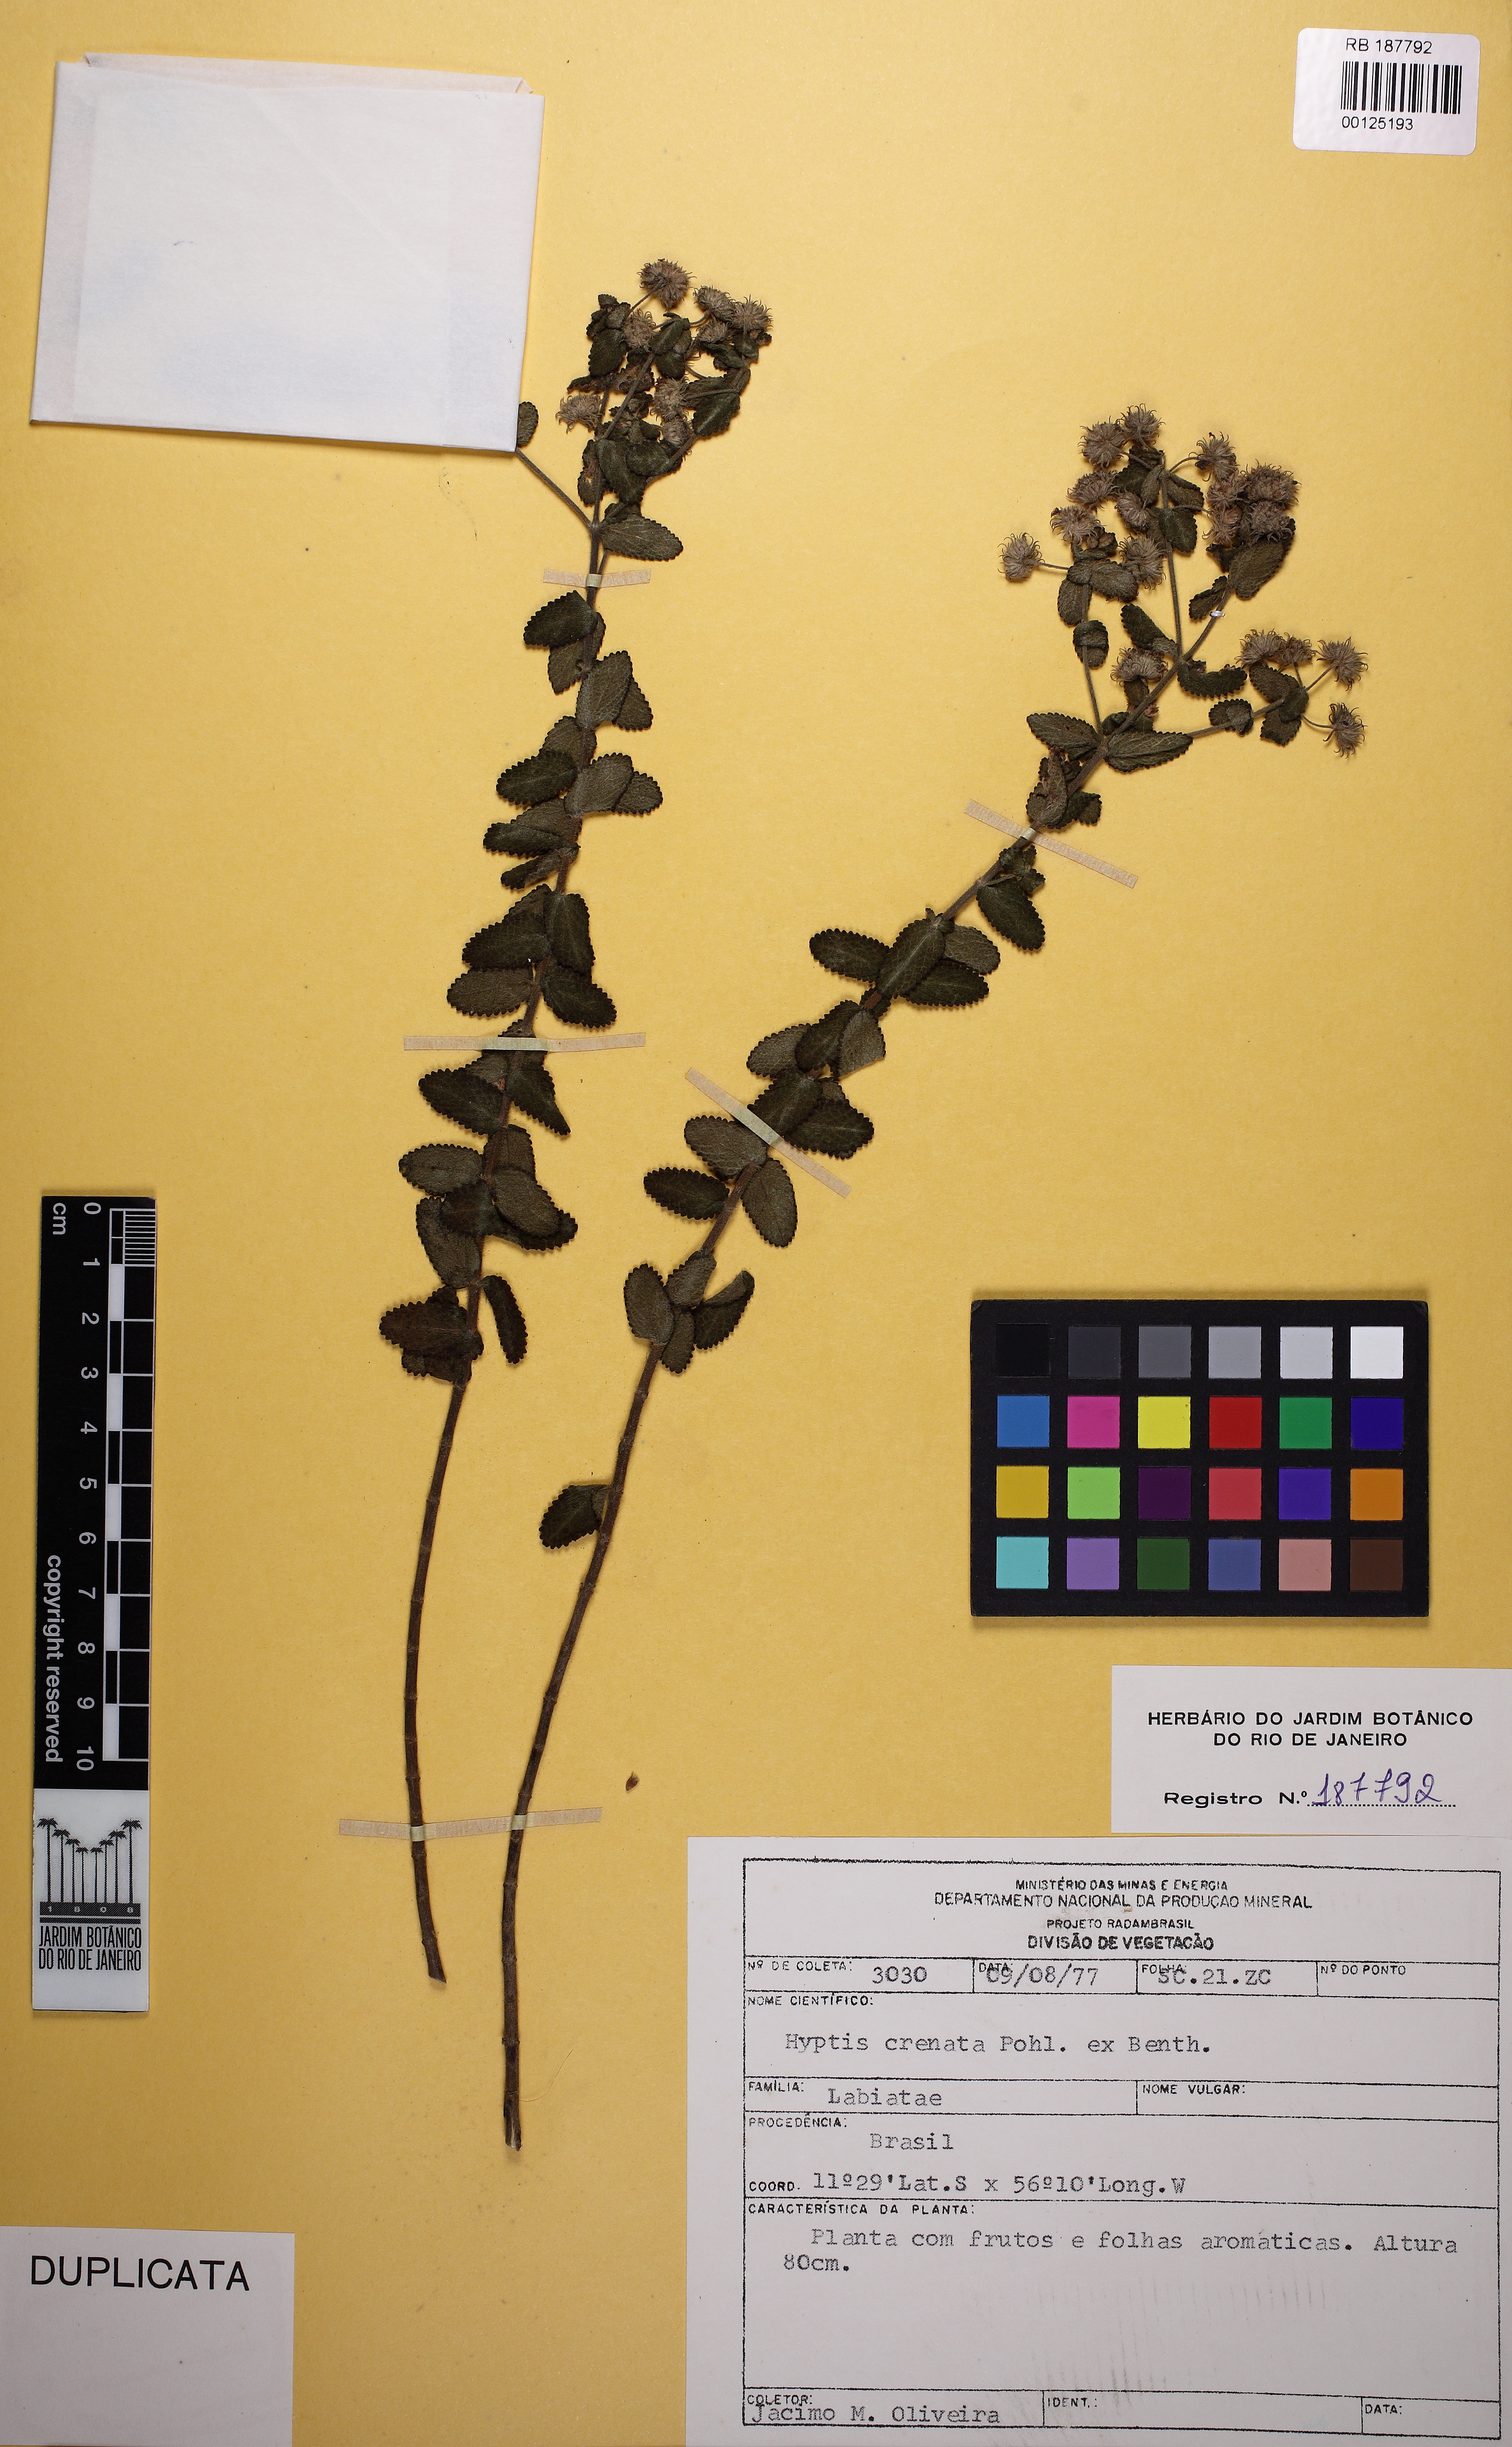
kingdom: Plantae
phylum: Tracheophyta
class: Magnoliopsida
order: Lamiales
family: Lamiaceae
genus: Hyptis
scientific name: Hyptis crenata
